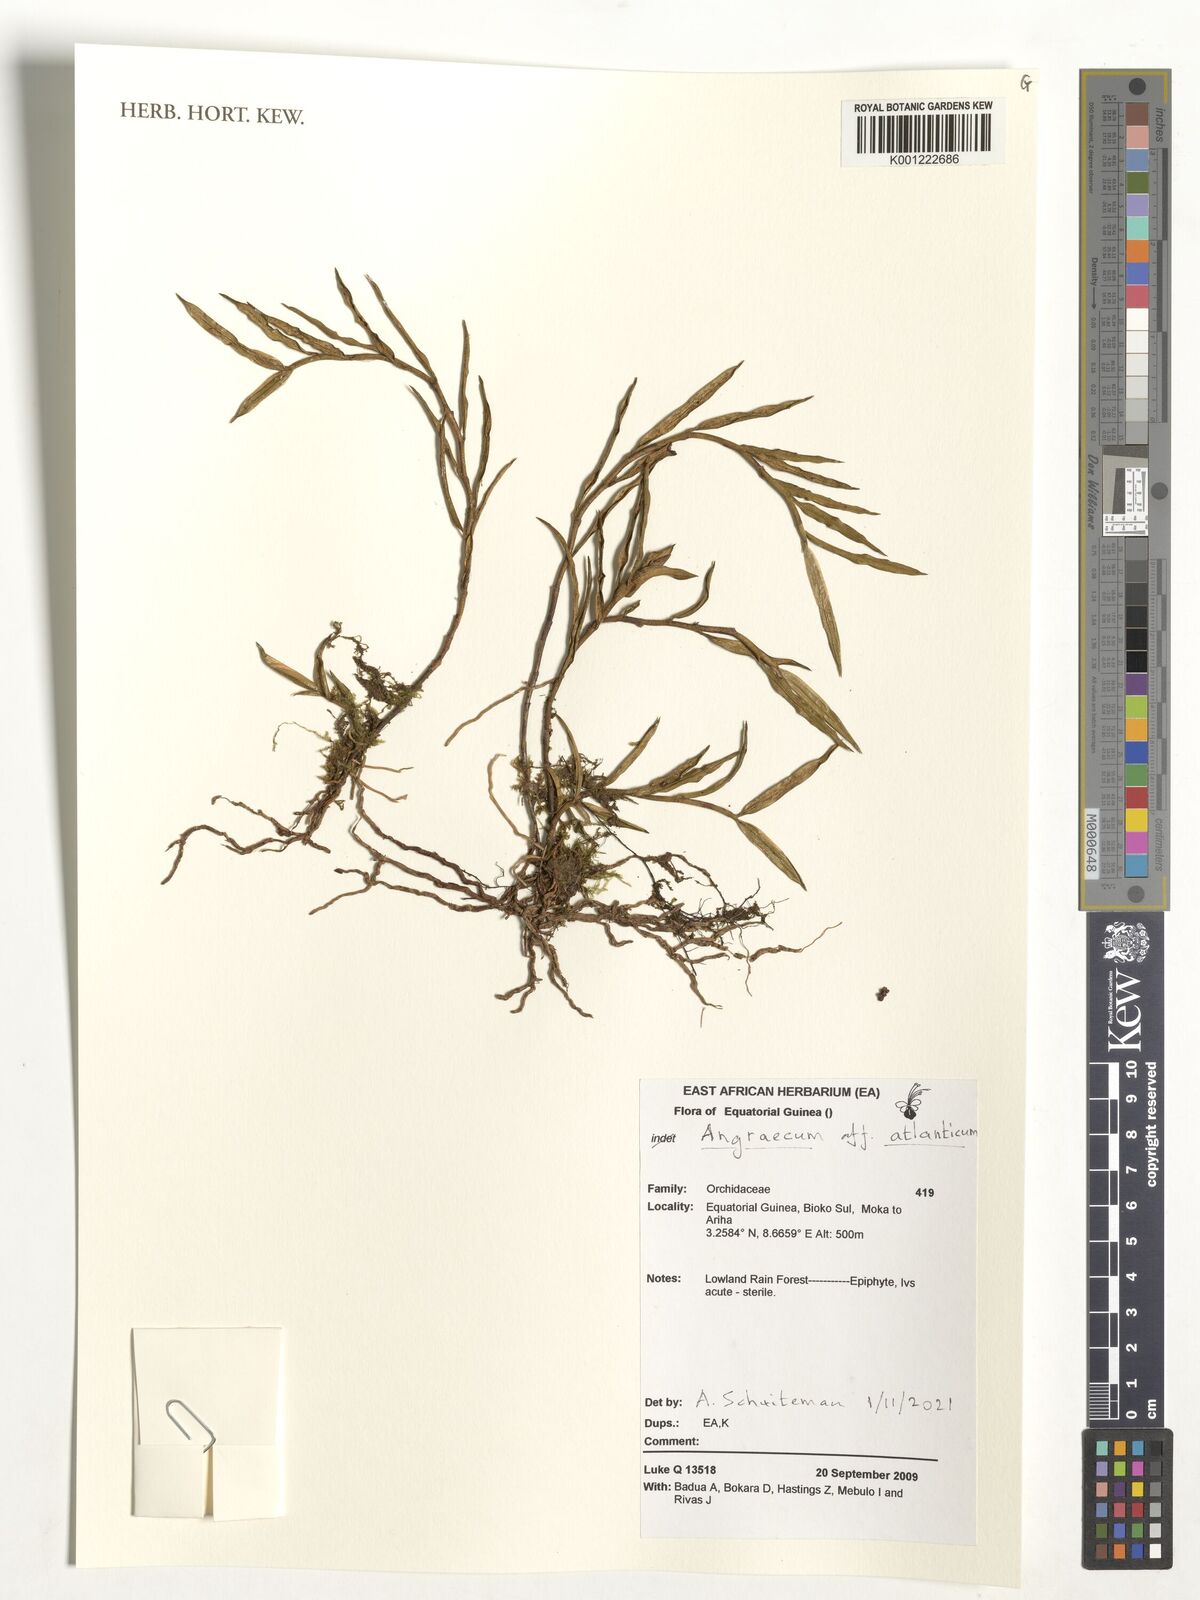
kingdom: Plantae
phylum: Tracheophyta
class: Liliopsida
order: Asparagales
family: Orchidaceae
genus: Afropectinariella
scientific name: Afropectinariella atlantica
